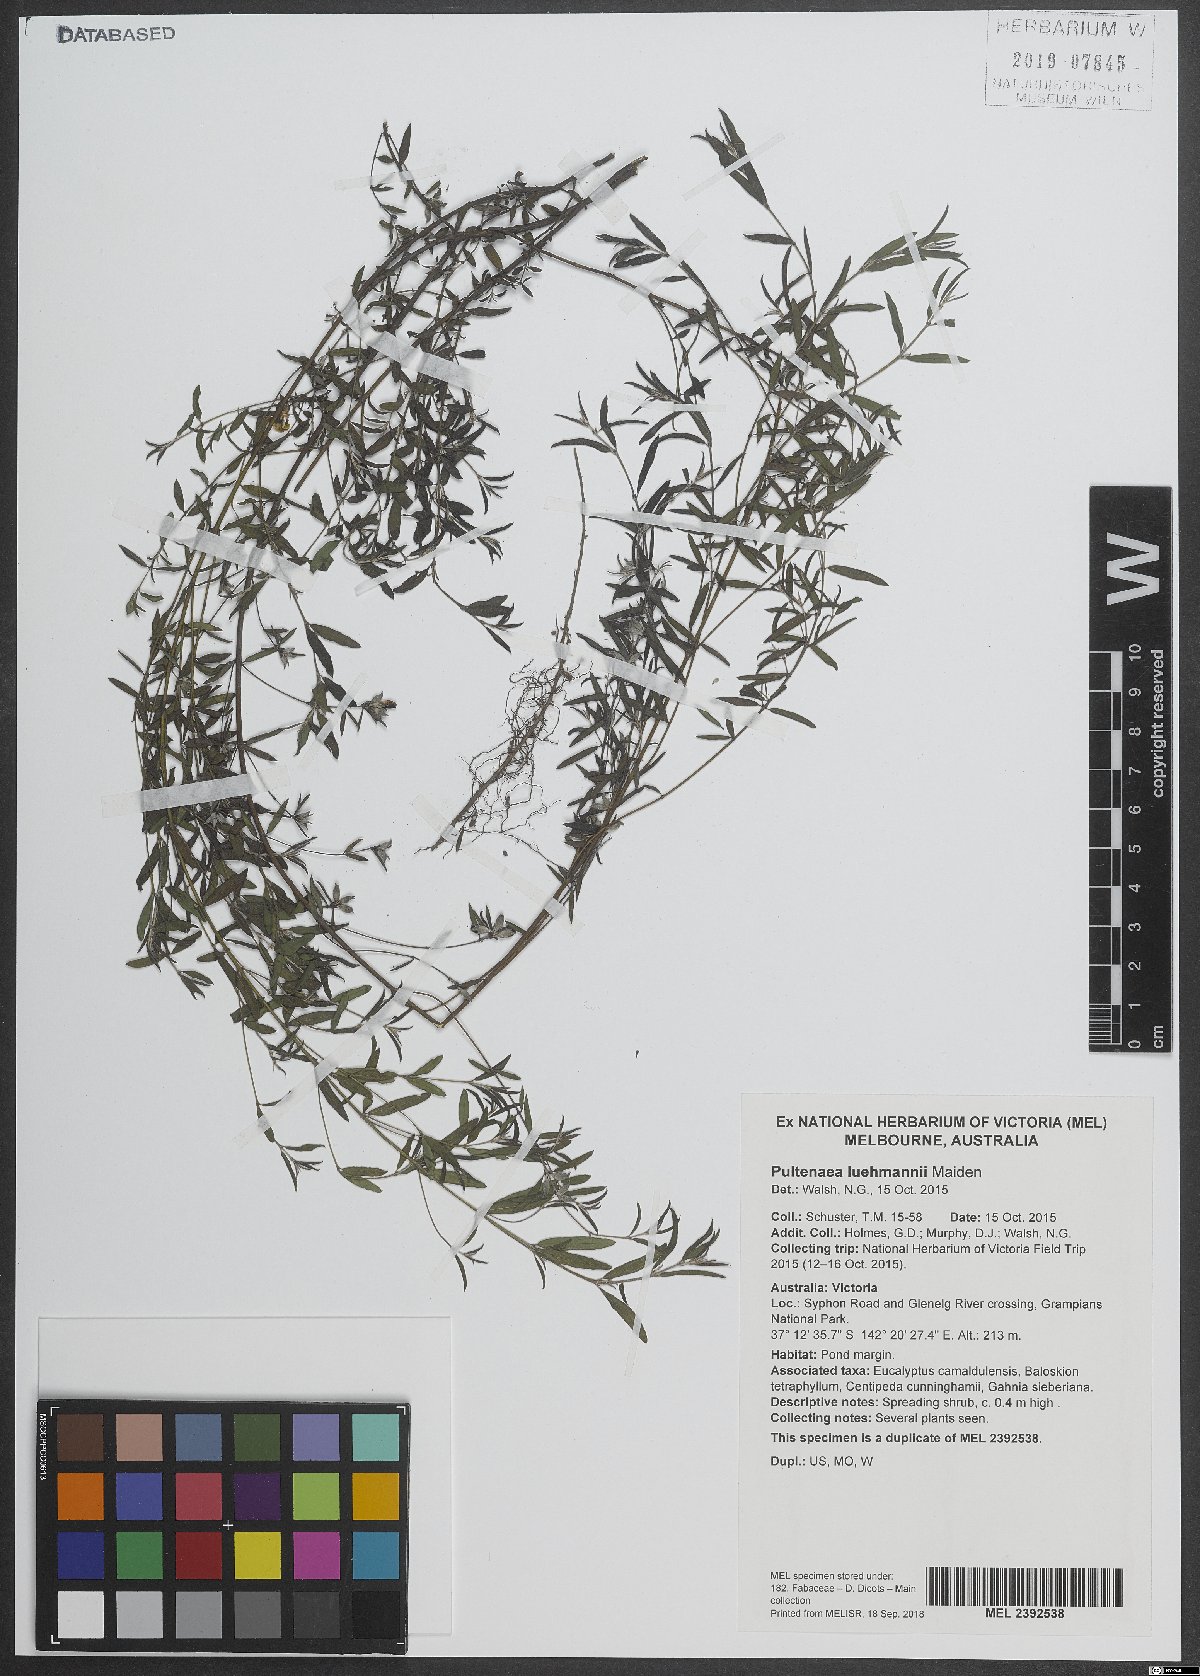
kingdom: Plantae
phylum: Tracheophyta
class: Magnoliopsida
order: Fabales
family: Fabaceae
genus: Pultenaea
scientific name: Pultenaea luehmannii
